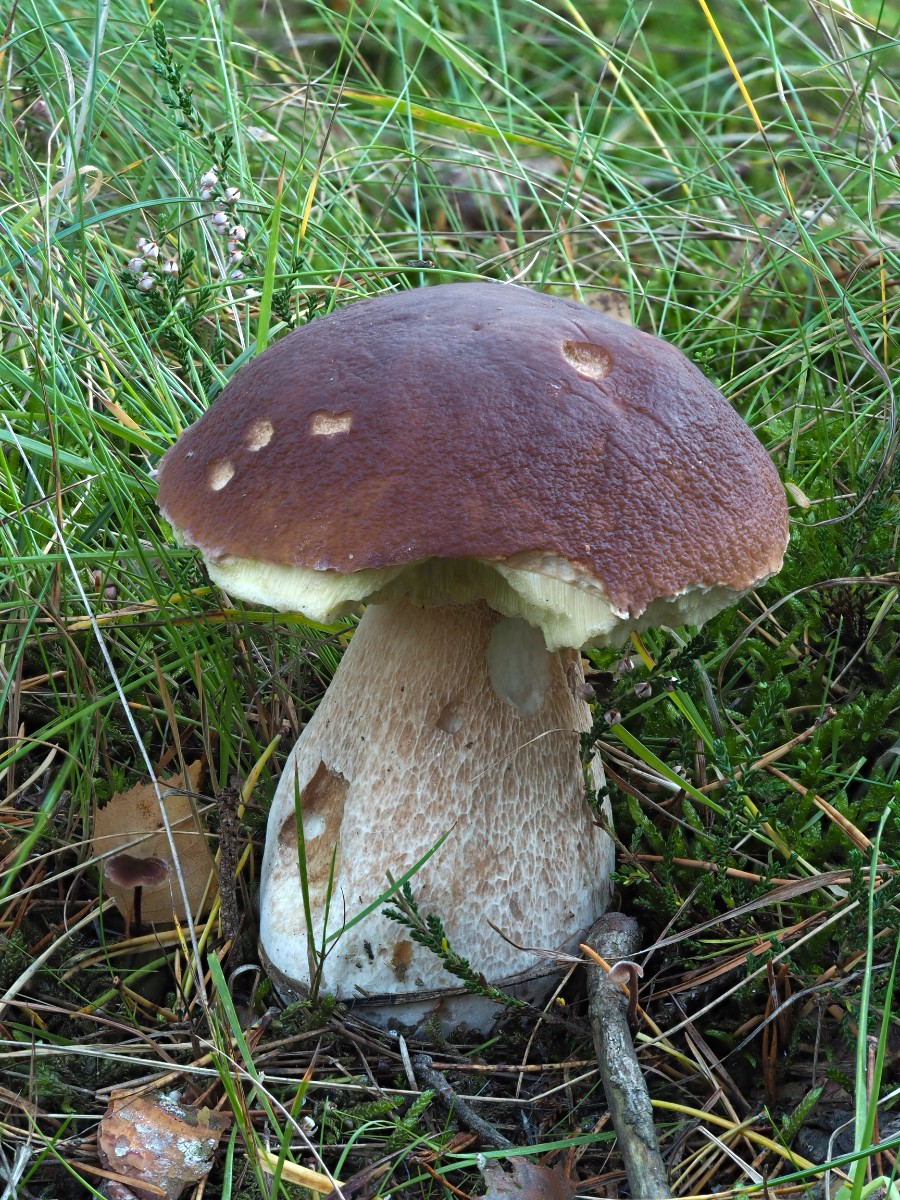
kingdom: Fungi
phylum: Basidiomycota
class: Agaricomycetes
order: Boletales
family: Boletaceae
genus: Boletus
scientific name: Boletus edulis
